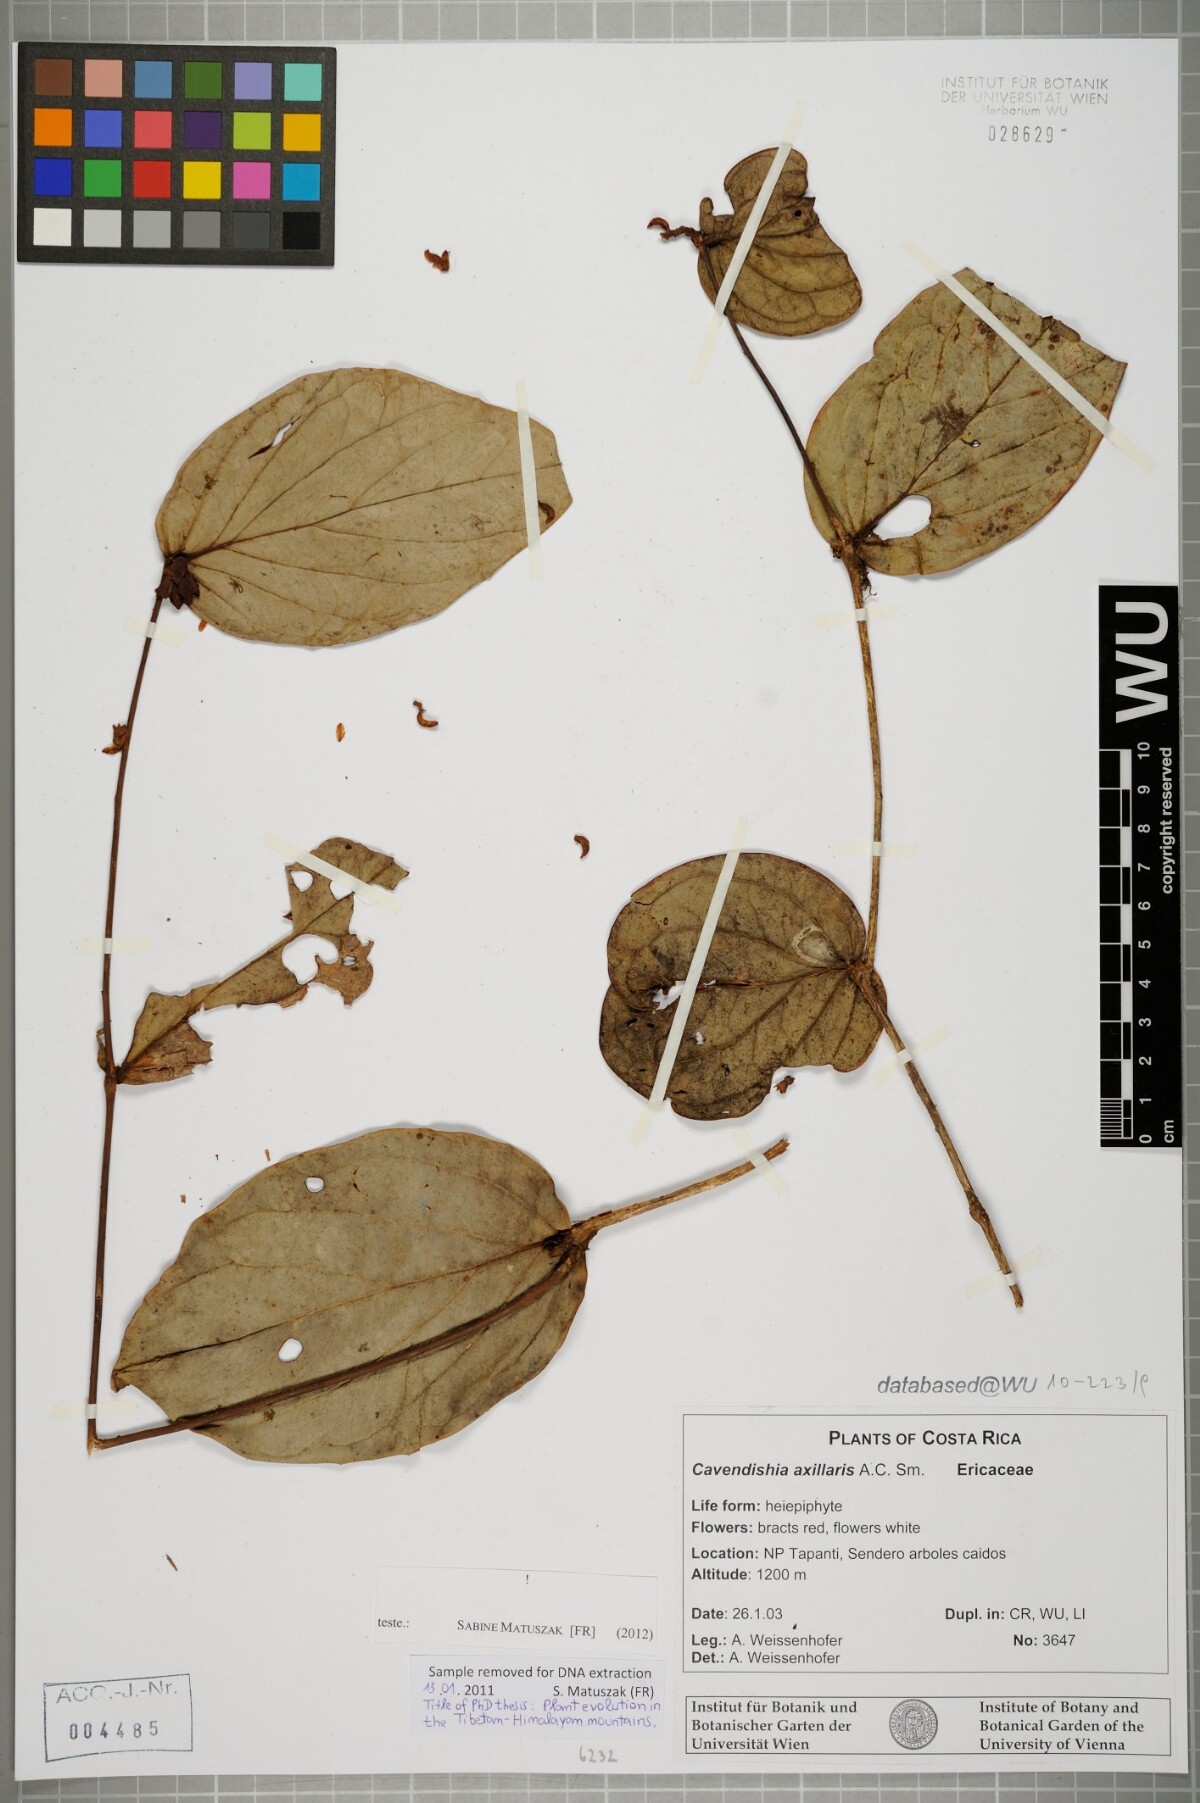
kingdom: Plantae
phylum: Tracheophyta
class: Magnoliopsida
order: Ericales
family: Ericaceae
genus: Cavendishia
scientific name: Cavendishia axillaris
